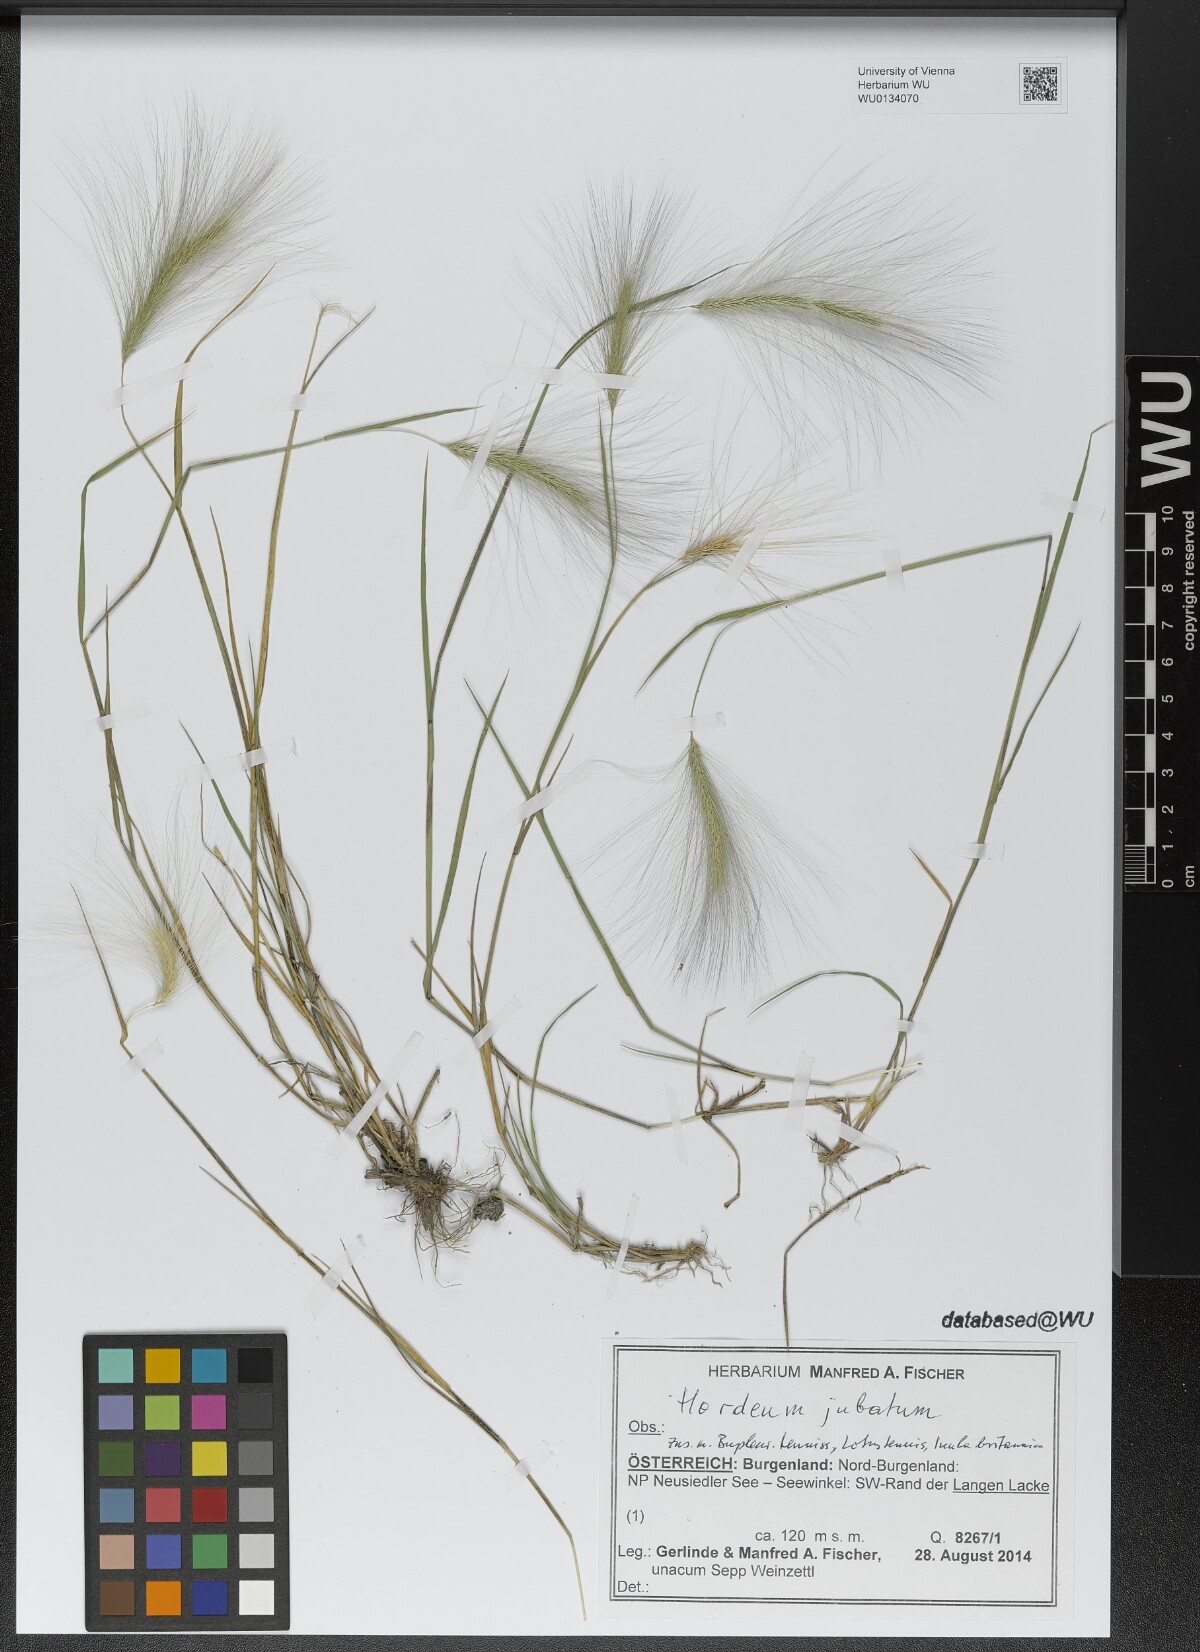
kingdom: Plantae
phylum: Tracheophyta
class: Liliopsida
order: Poales
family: Poaceae
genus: Hordeum
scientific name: Hordeum jubatum
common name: Foxtail barley
